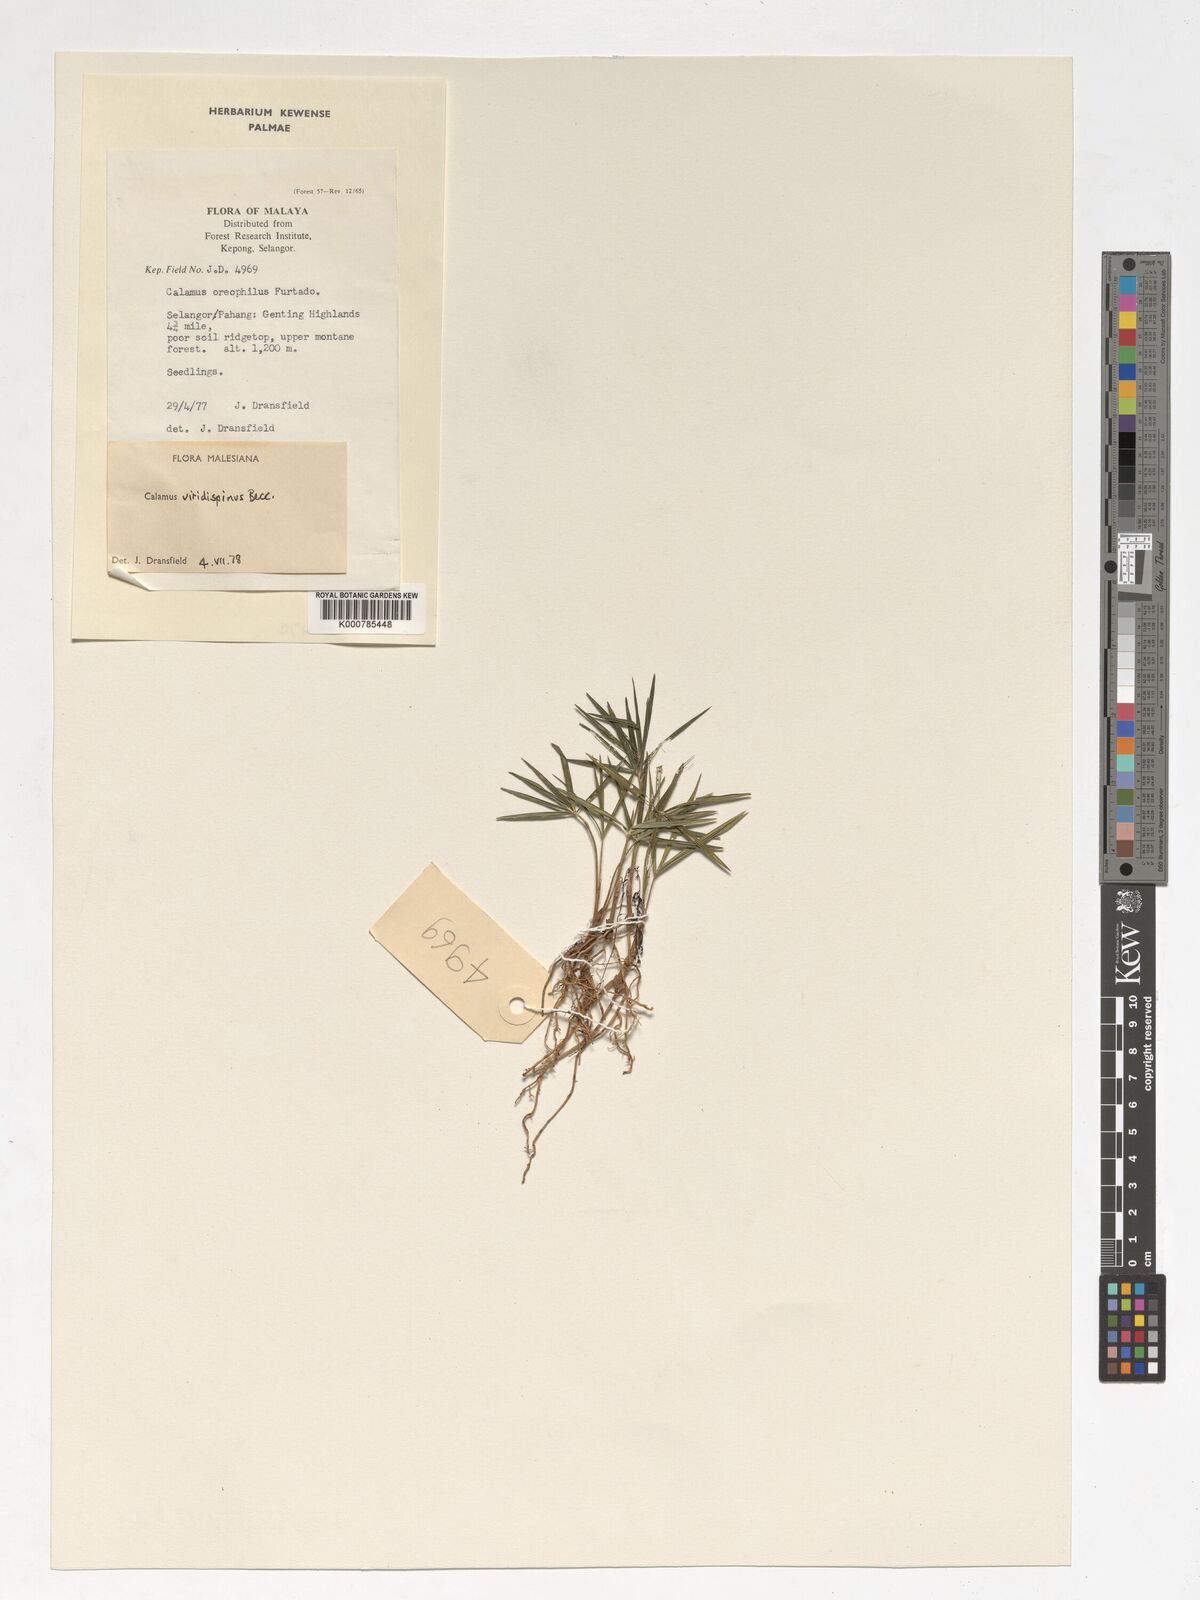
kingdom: Plantae
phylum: Tracheophyta
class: Liliopsida
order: Arecales
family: Arecaceae
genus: Calamus
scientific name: Calamus helferianus
